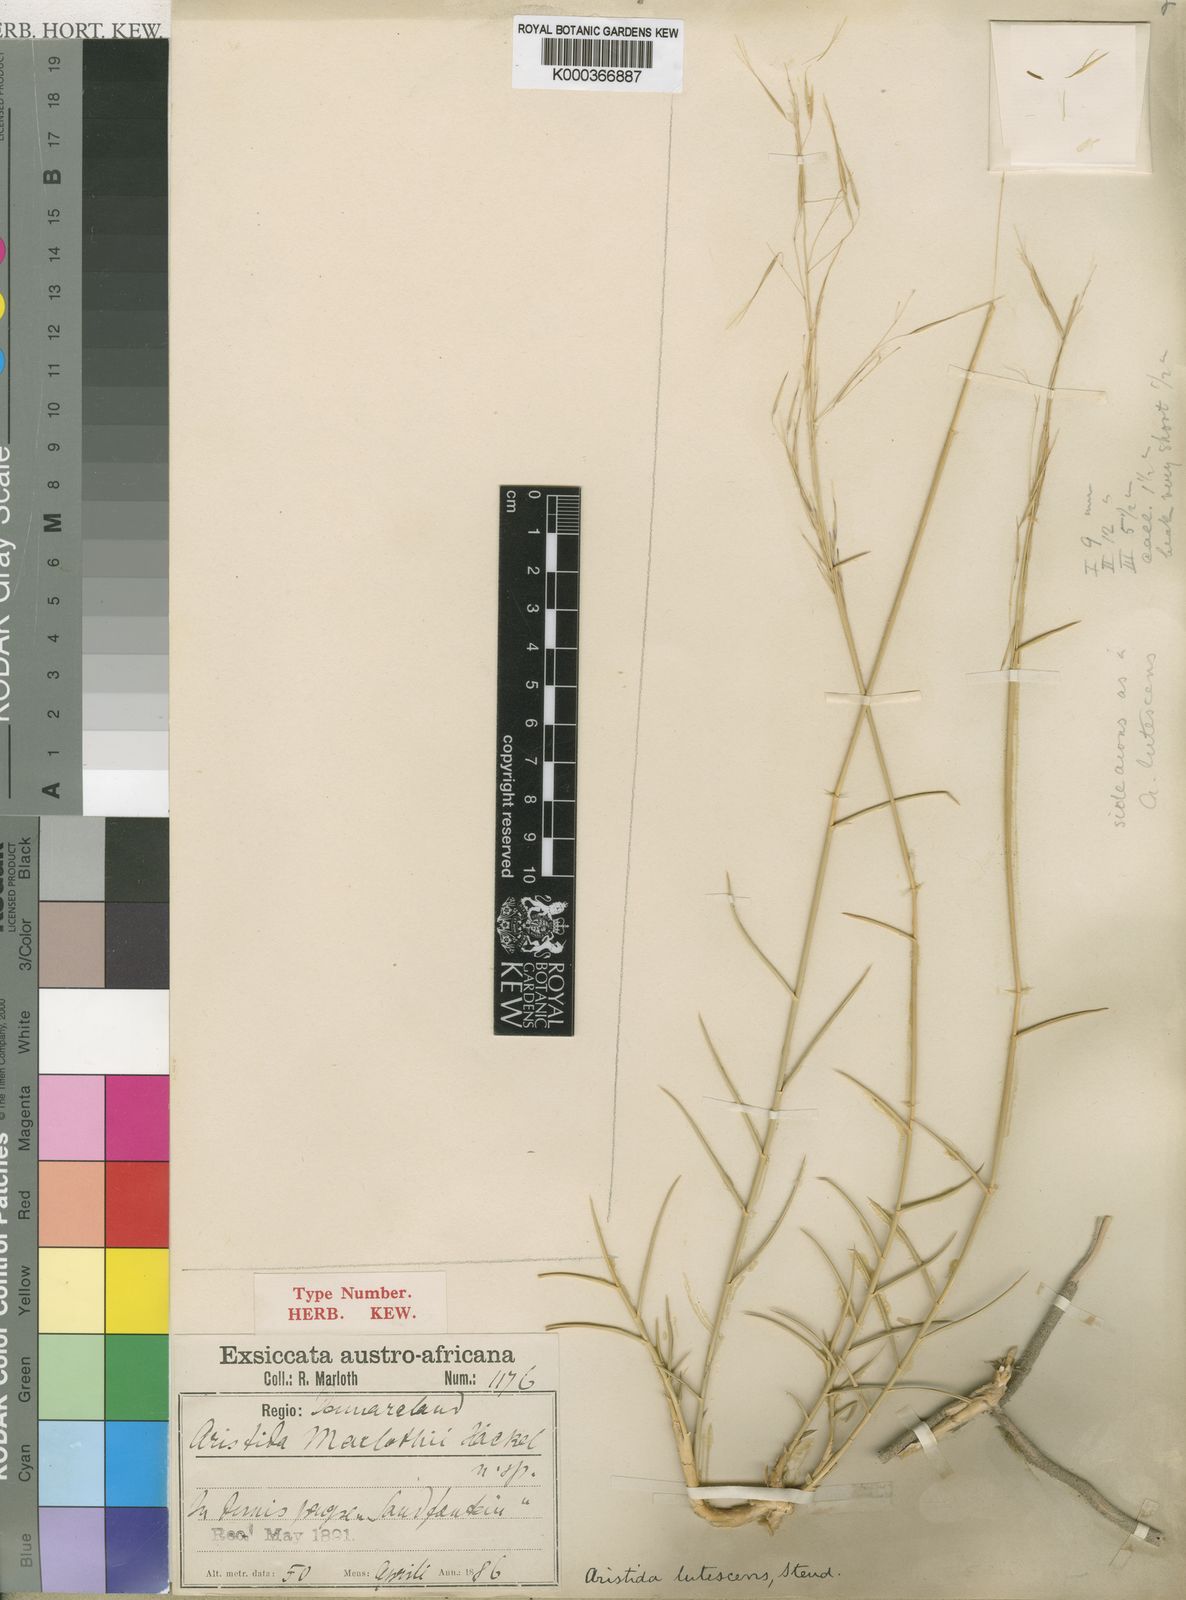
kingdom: Plantae
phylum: Tracheophyta
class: Liliopsida
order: Poales
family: Poaceae
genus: Stipagrostis
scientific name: Stipagrostis lutescens
